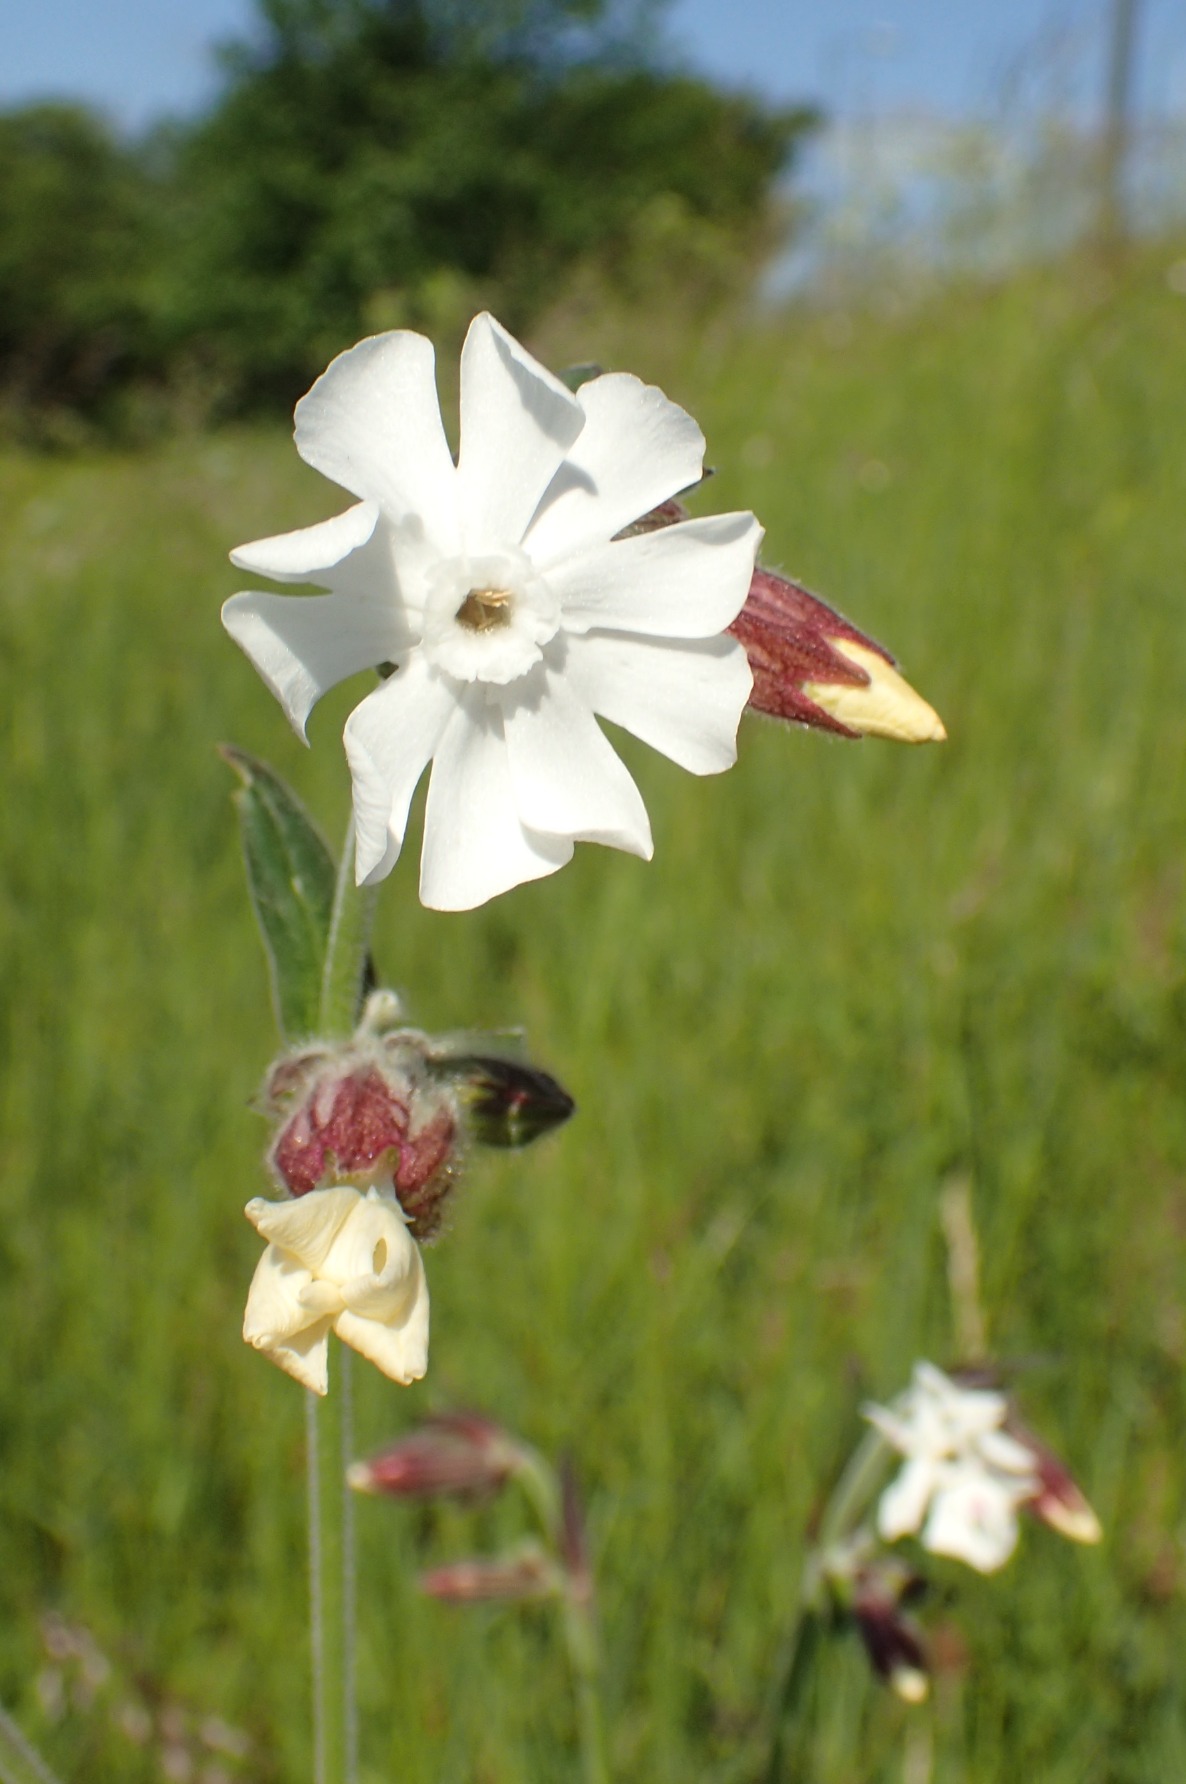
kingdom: Plantae
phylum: Tracheophyta
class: Magnoliopsida
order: Caryophyllales
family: Caryophyllaceae
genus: Silene
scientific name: Silene latifolia
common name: Aftenpragtstjerne
